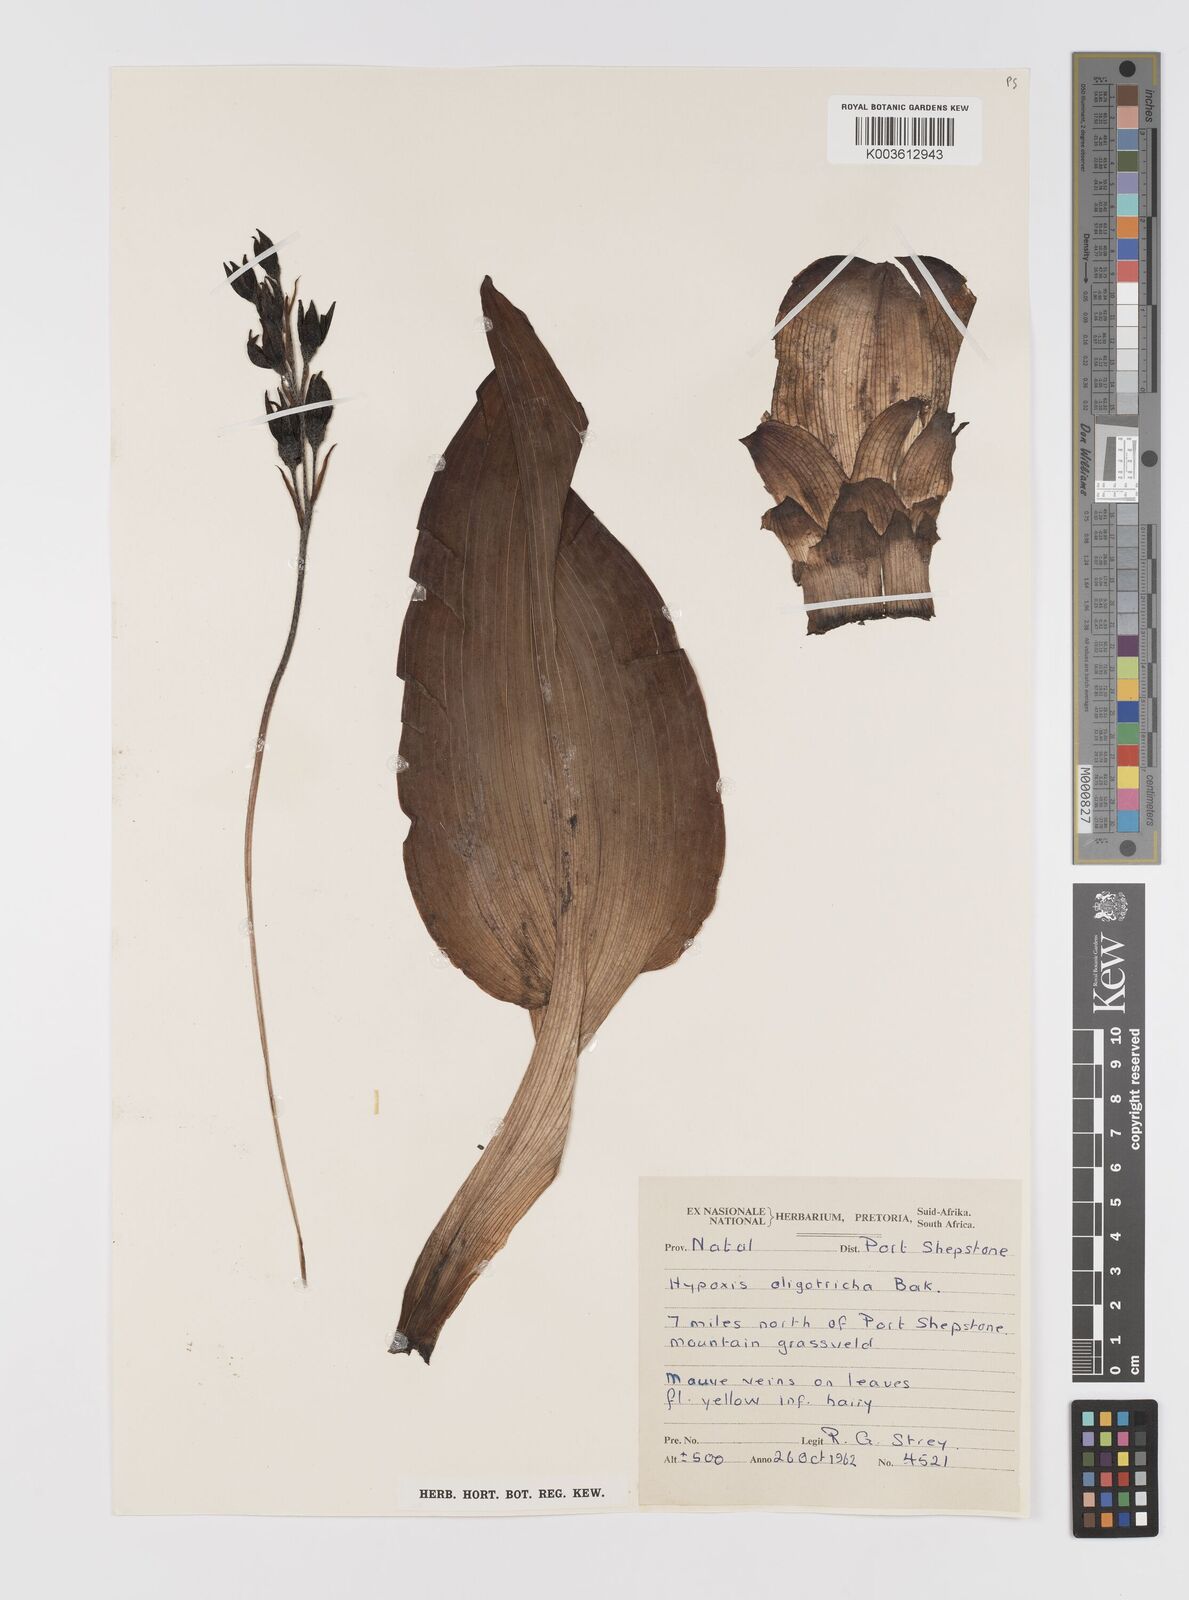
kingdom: Plantae
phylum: Tracheophyta
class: Liliopsida
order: Asparagales
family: Hypoxidaceae
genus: Hypoxis
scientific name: Hypoxis
